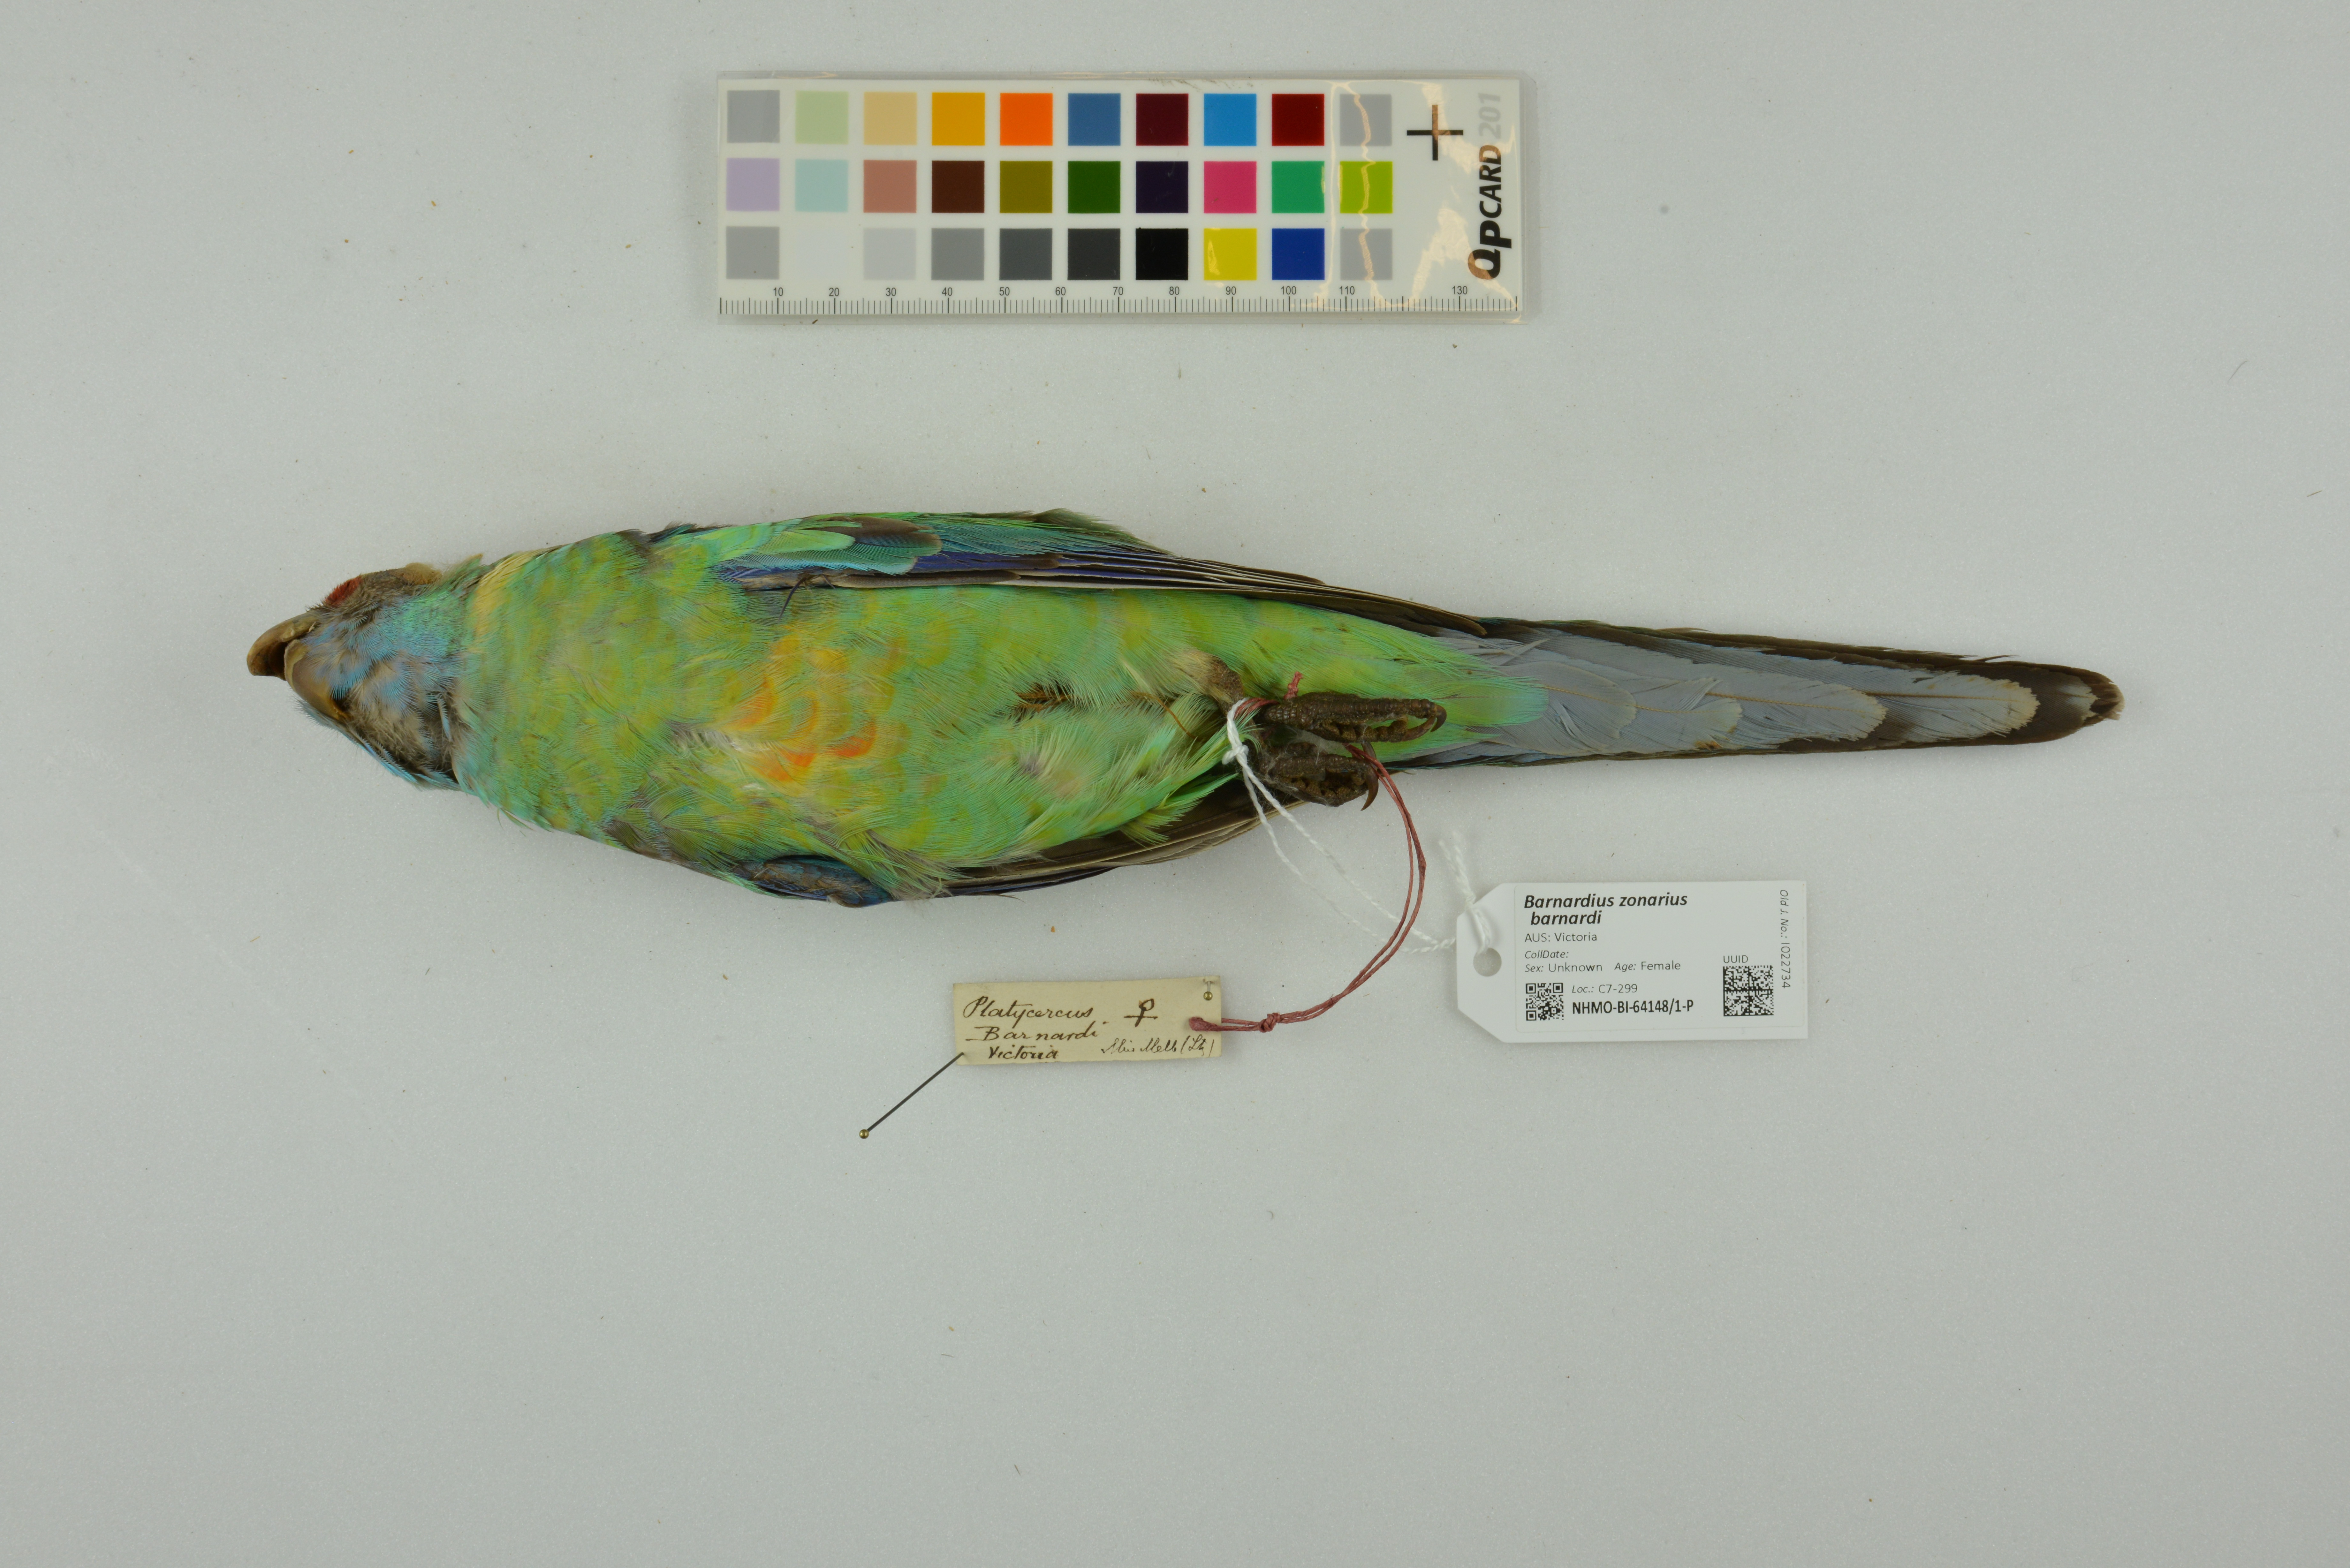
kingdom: Animalia
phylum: Chordata
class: Aves
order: Psittaciformes
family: Psittacidae
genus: Barnardius
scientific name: Barnardius zonarius
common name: Australian ringneck
